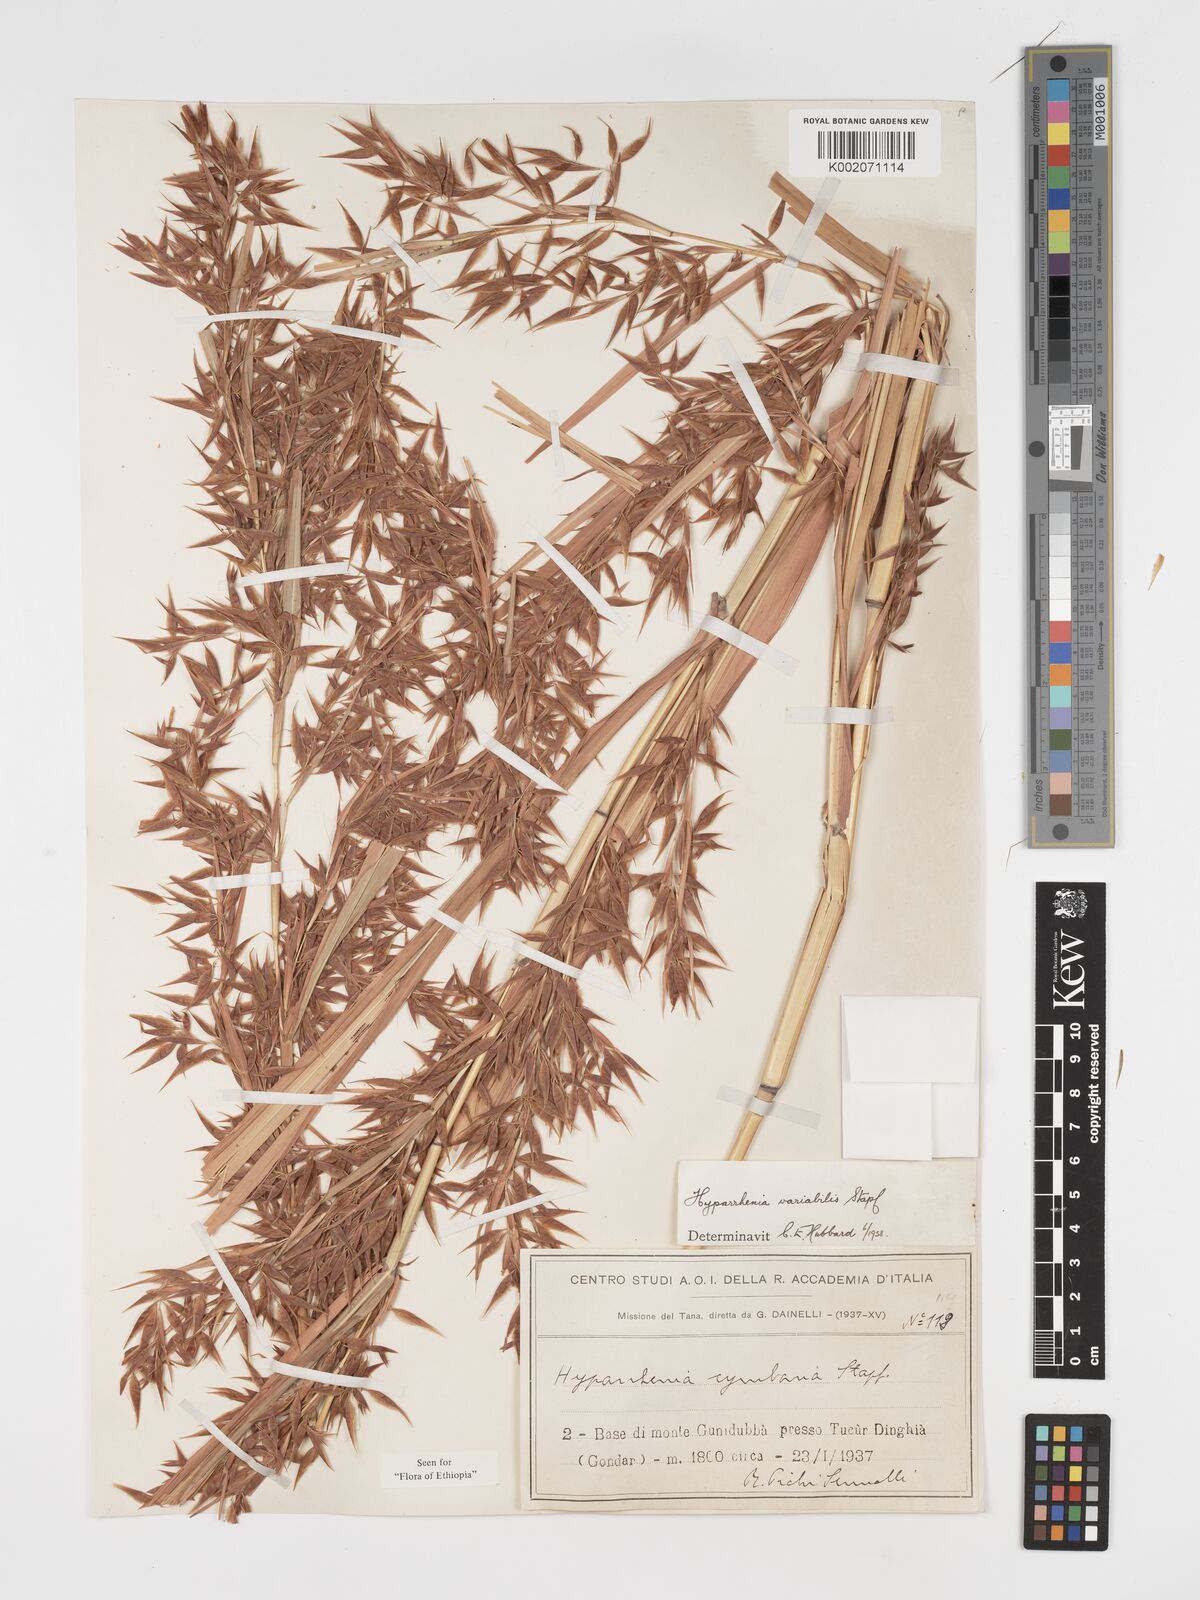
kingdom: Plantae
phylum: Tracheophyta
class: Liliopsida
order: Poales
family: Poaceae
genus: Hyparrhenia
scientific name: Hyparrhenia variabilis
